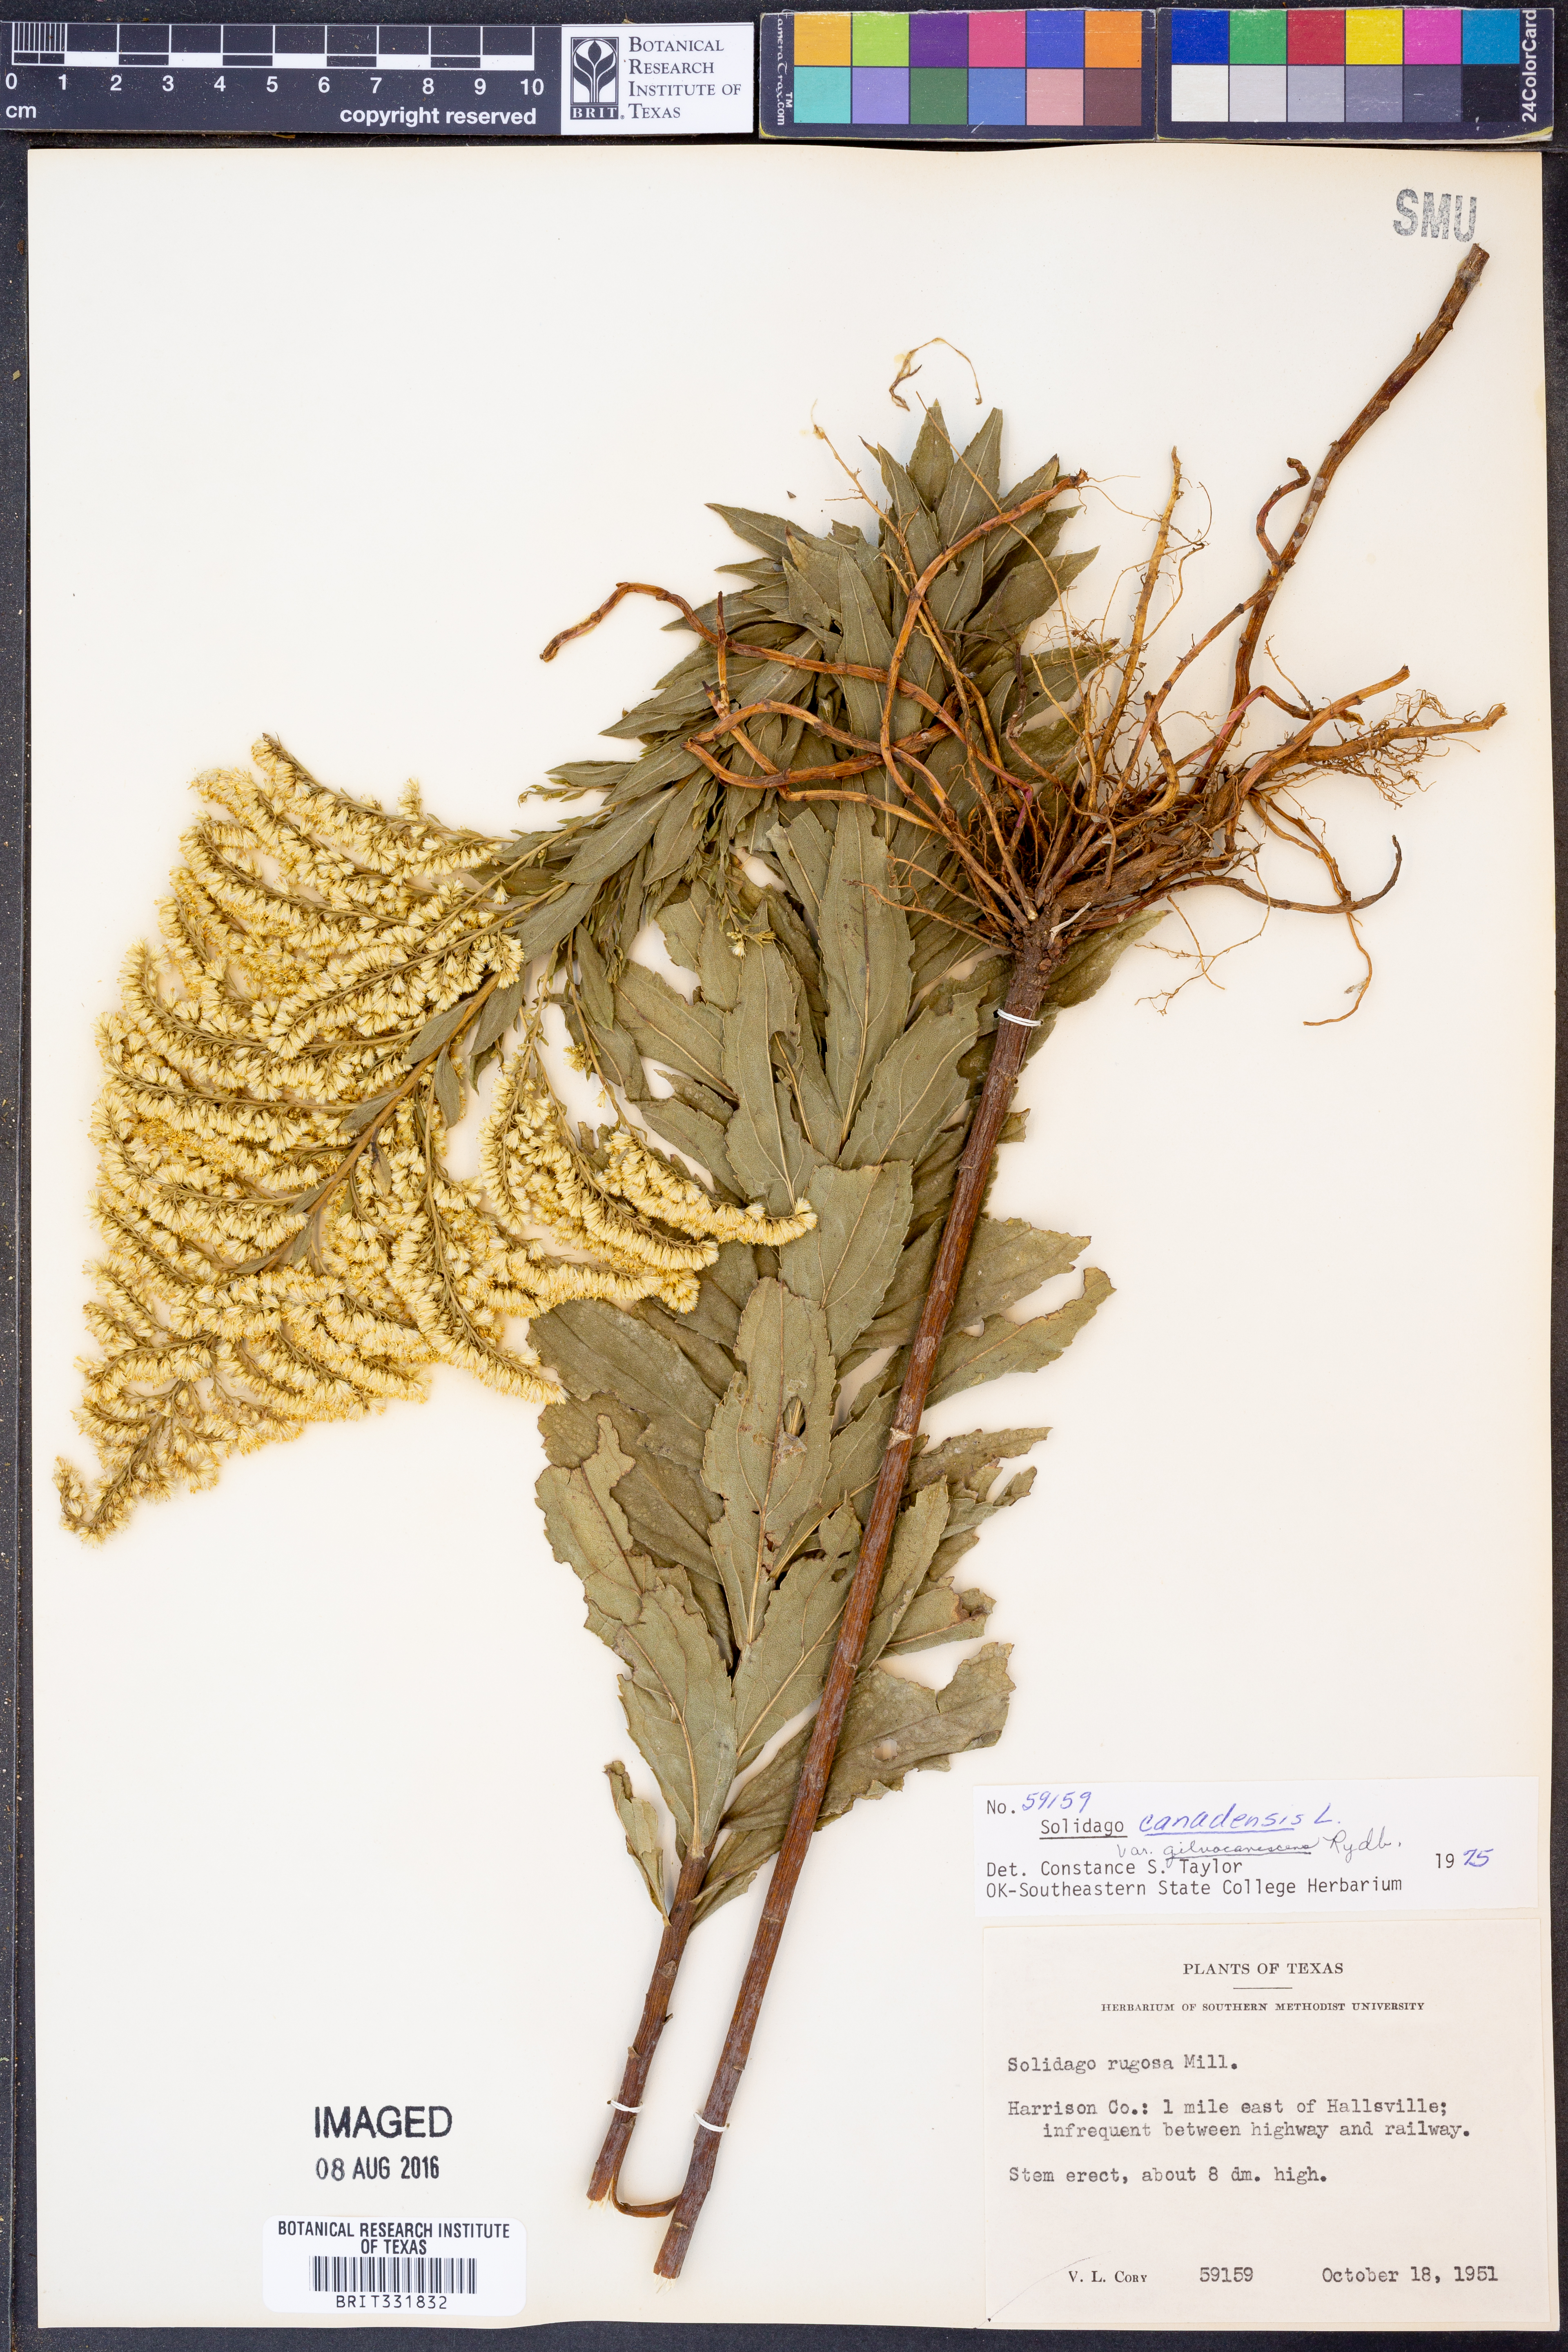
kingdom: Plantae
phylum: Tracheophyta
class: Magnoliopsida
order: Asterales
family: Asteraceae
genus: Solidago
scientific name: Solidago altissima
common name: Late goldenrod
